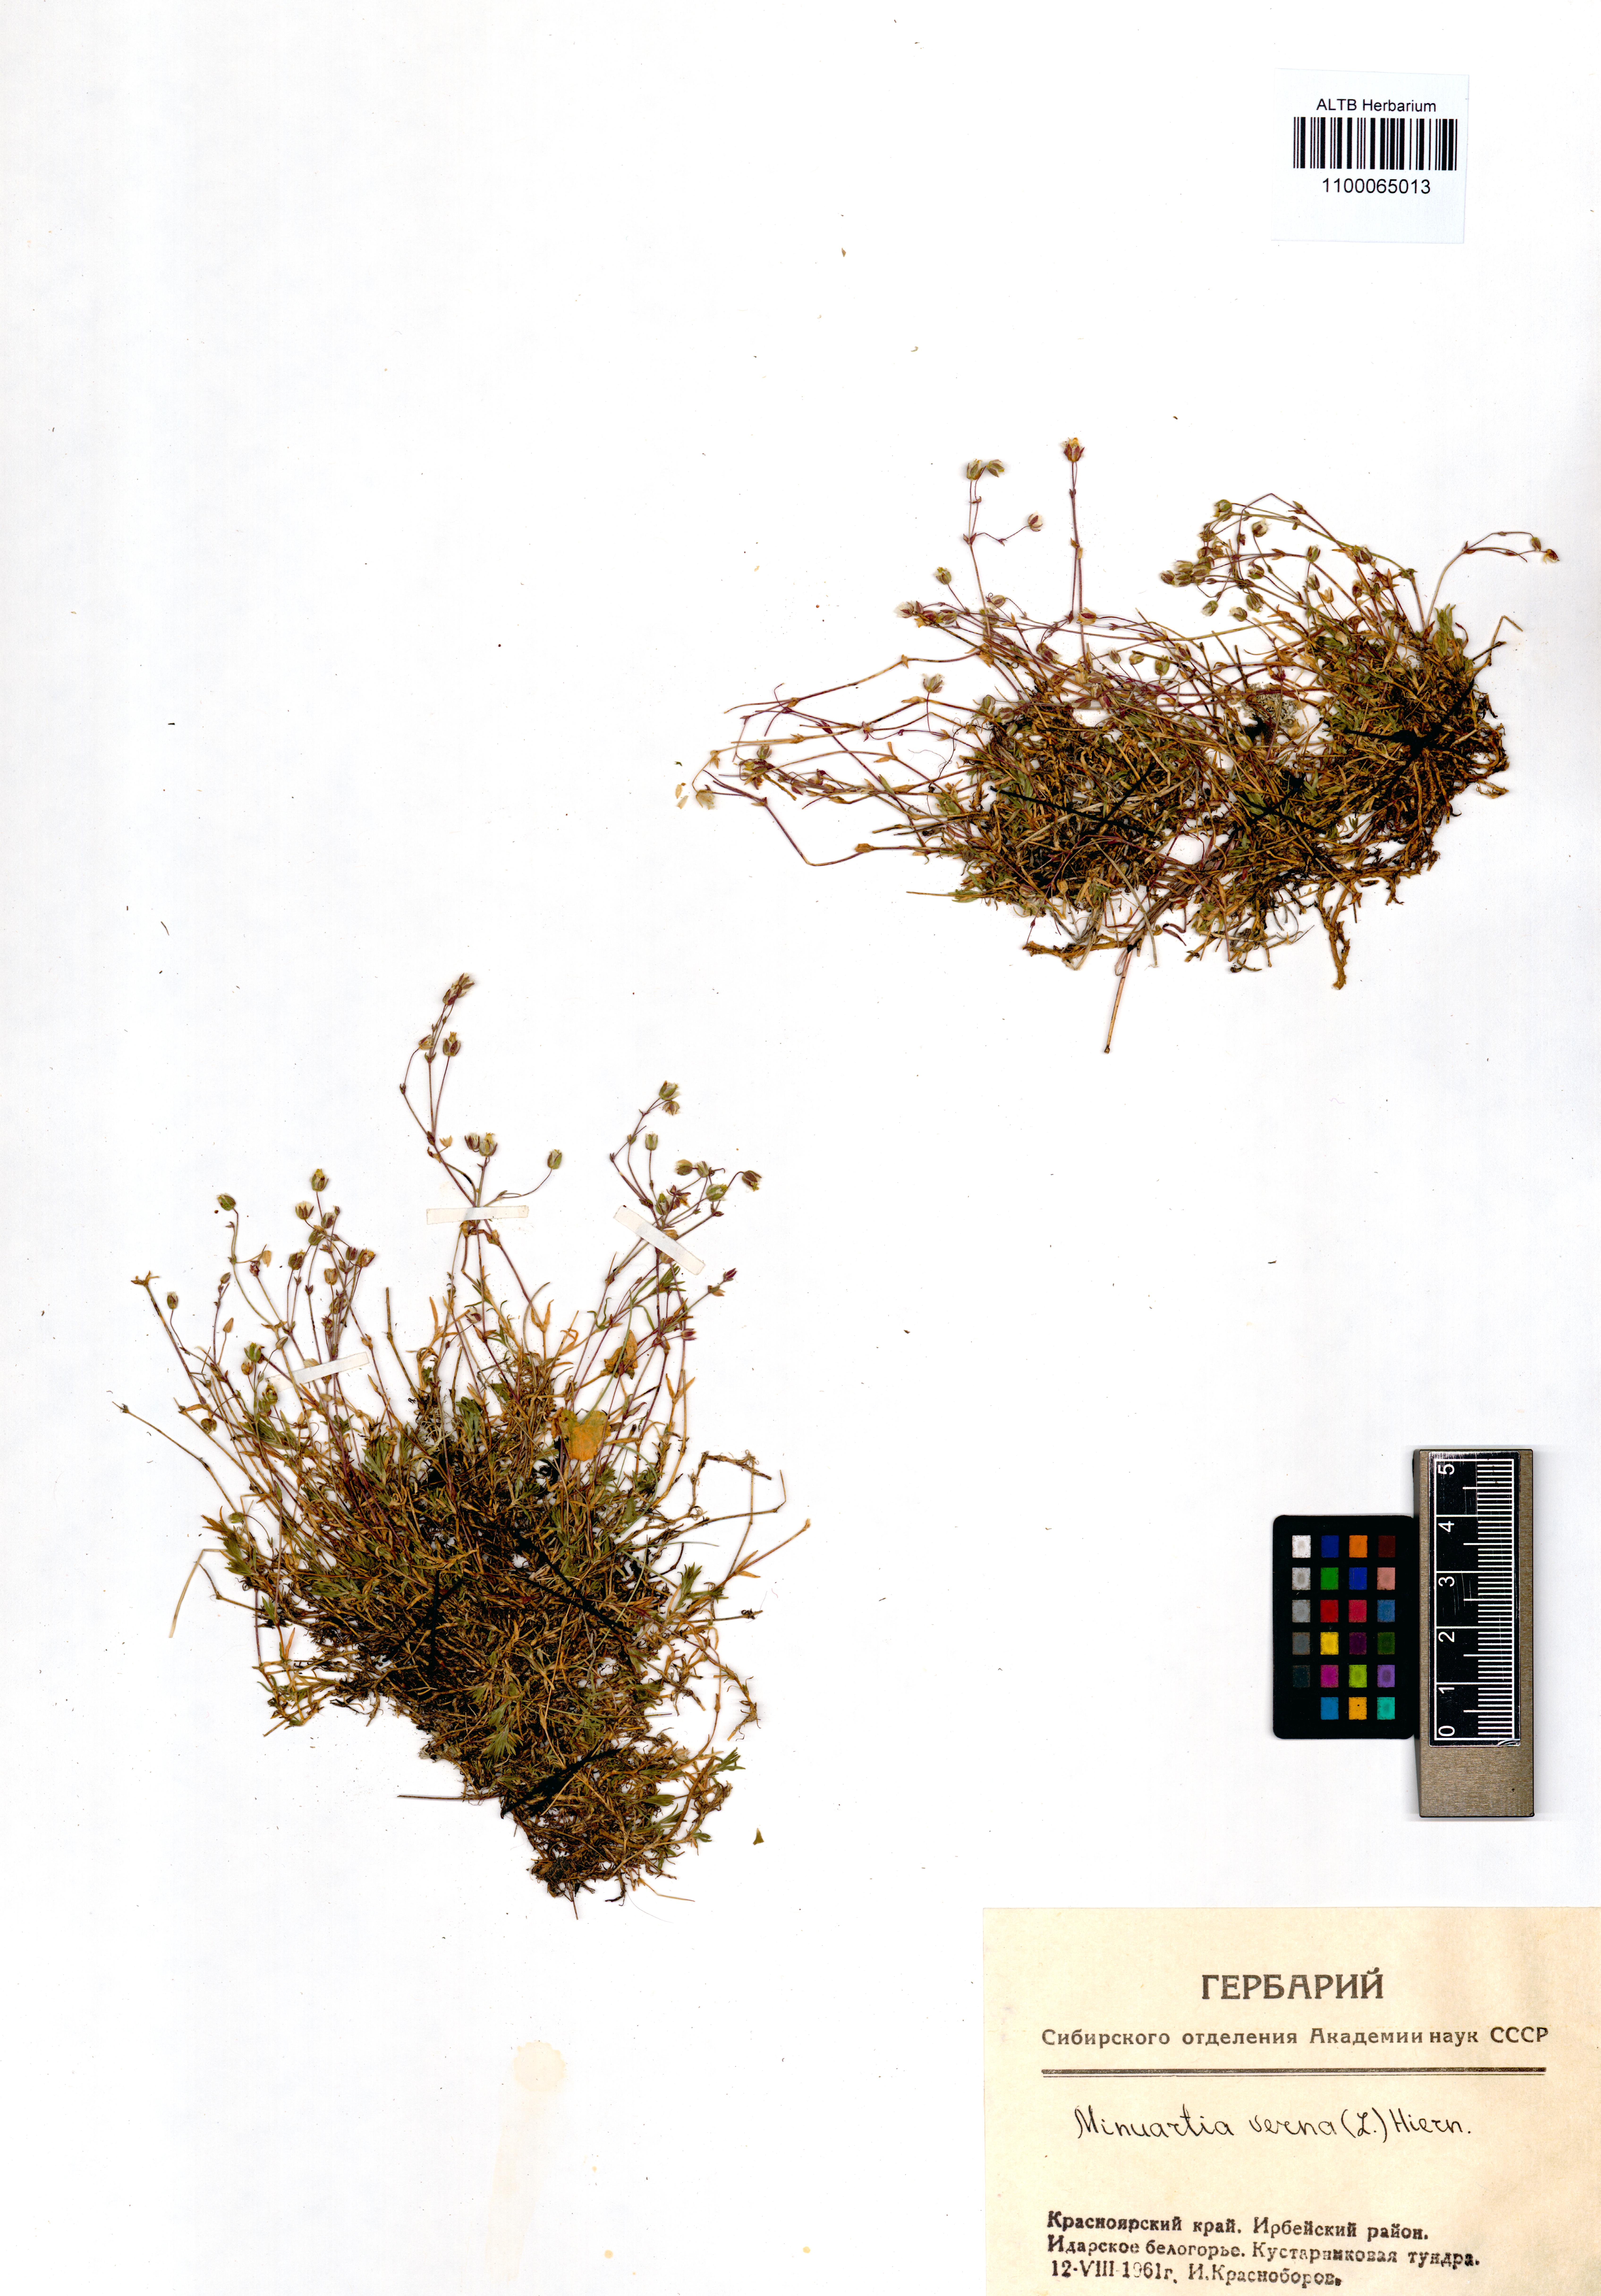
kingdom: Plantae
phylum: Tracheophyta
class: Magnoliopsida
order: Caryophyllales
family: Caryophyllaceae
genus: Sabulina
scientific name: Sabulina verna
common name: Spring sandwort
